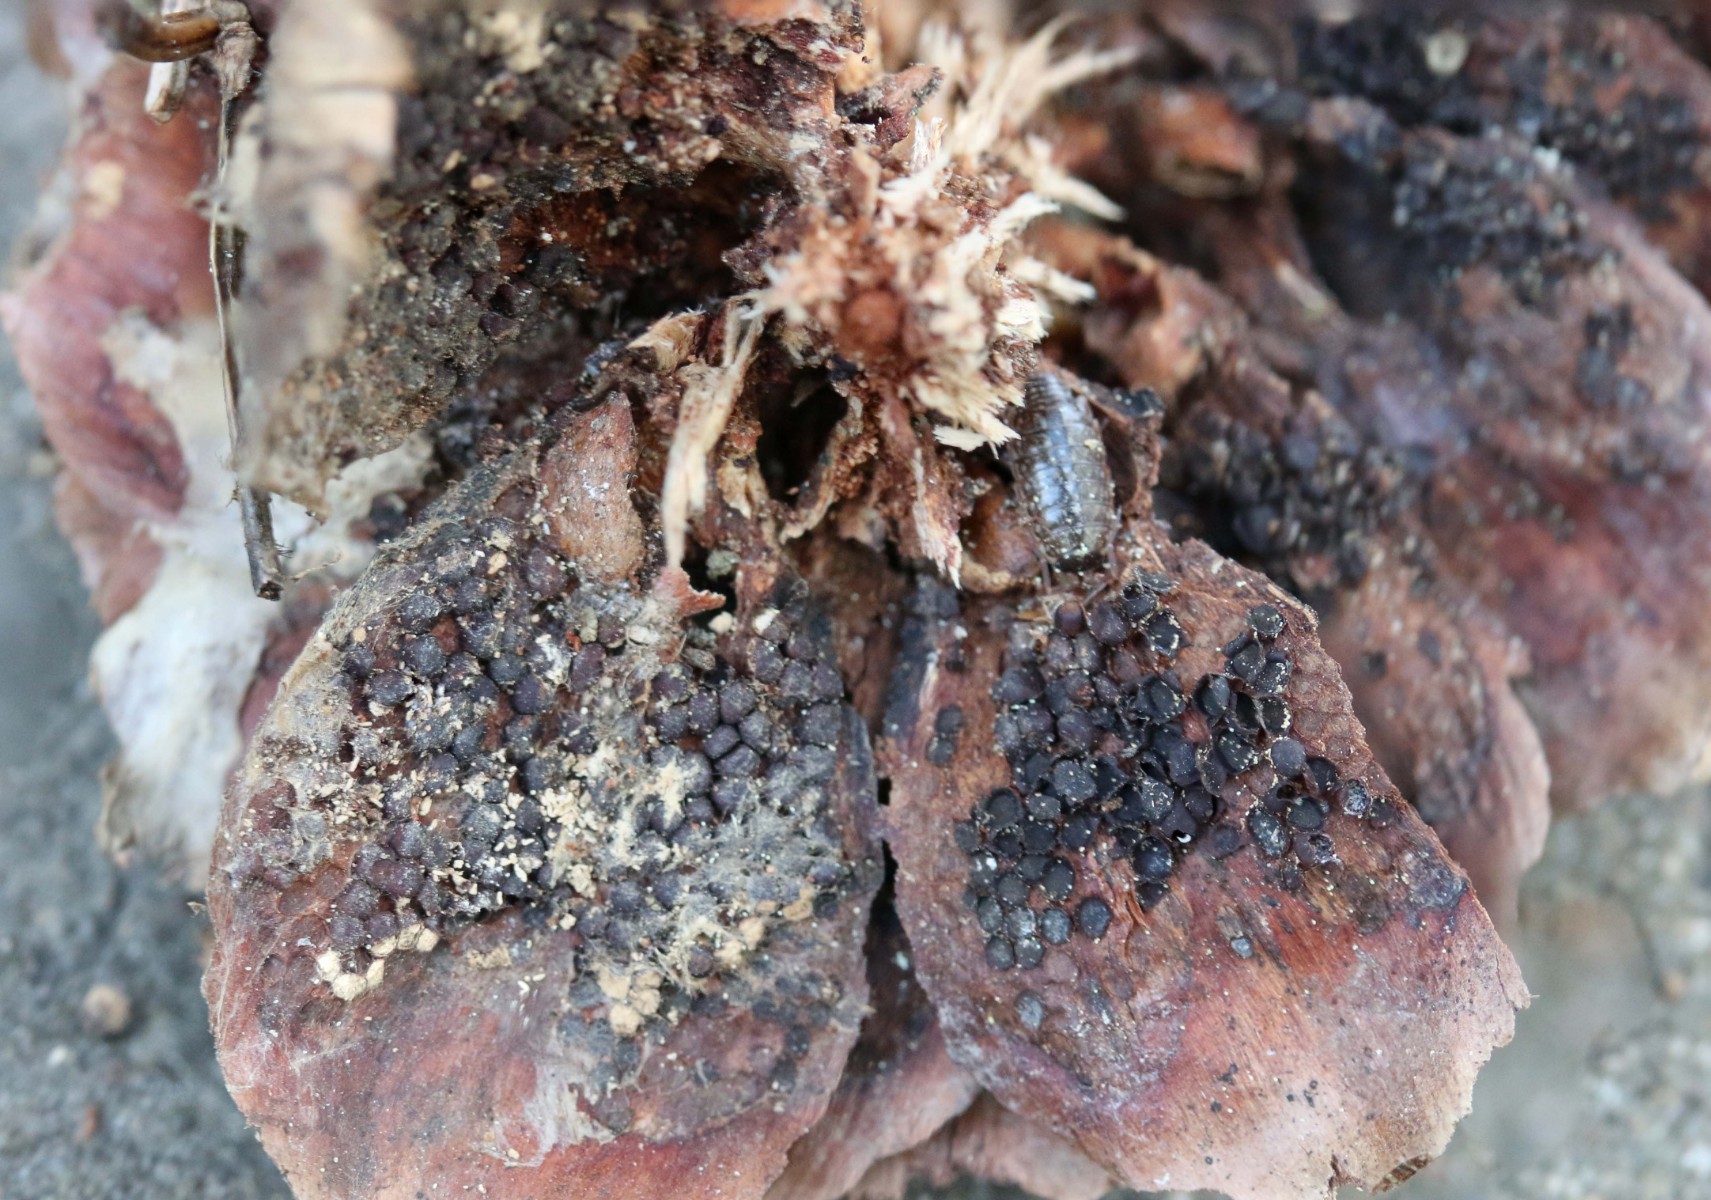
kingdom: Fungi
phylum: Basidiomycota
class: Pucciniomycetes
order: Pucciniales
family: Pucciniastraceae
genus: Thekopsora
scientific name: Thekopsora areolata
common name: grankogle-nålerust
